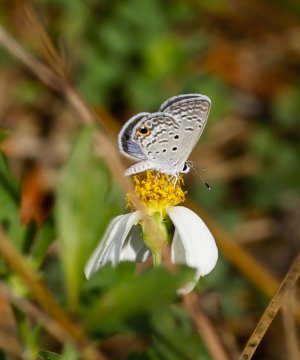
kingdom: Animalia
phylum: Arthropoda
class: Insecta
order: Lepidoptera
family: Lycaenidae
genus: Hemiargus
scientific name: Hemiargus ceraunus
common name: Ceraunus Blue
